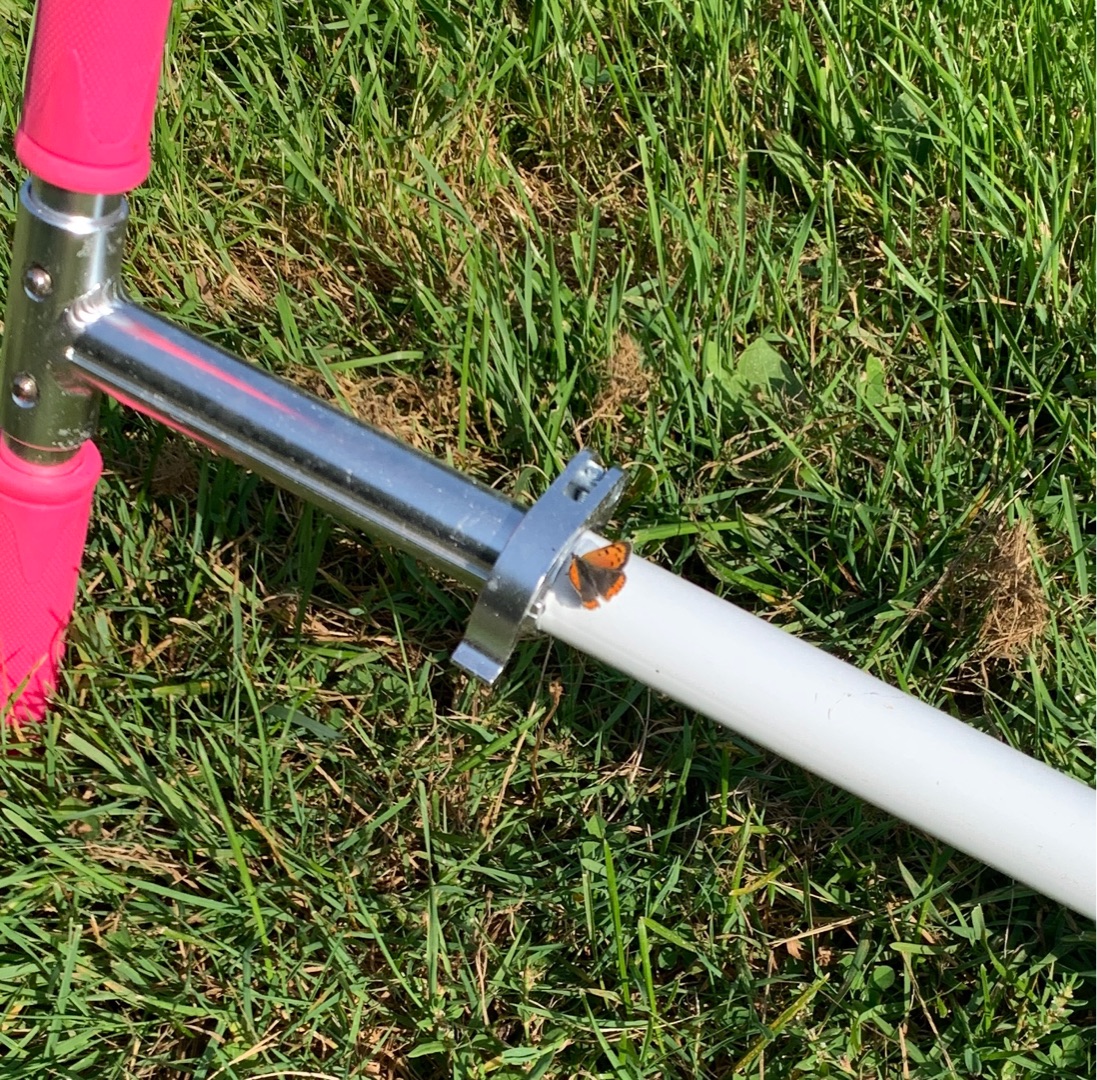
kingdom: Animalia
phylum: Arthropoda
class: Insecta
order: Lepidoptera
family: Lycaenidae
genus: Lycaena
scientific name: Lycaena phlaeas
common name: Lille ildfugl
